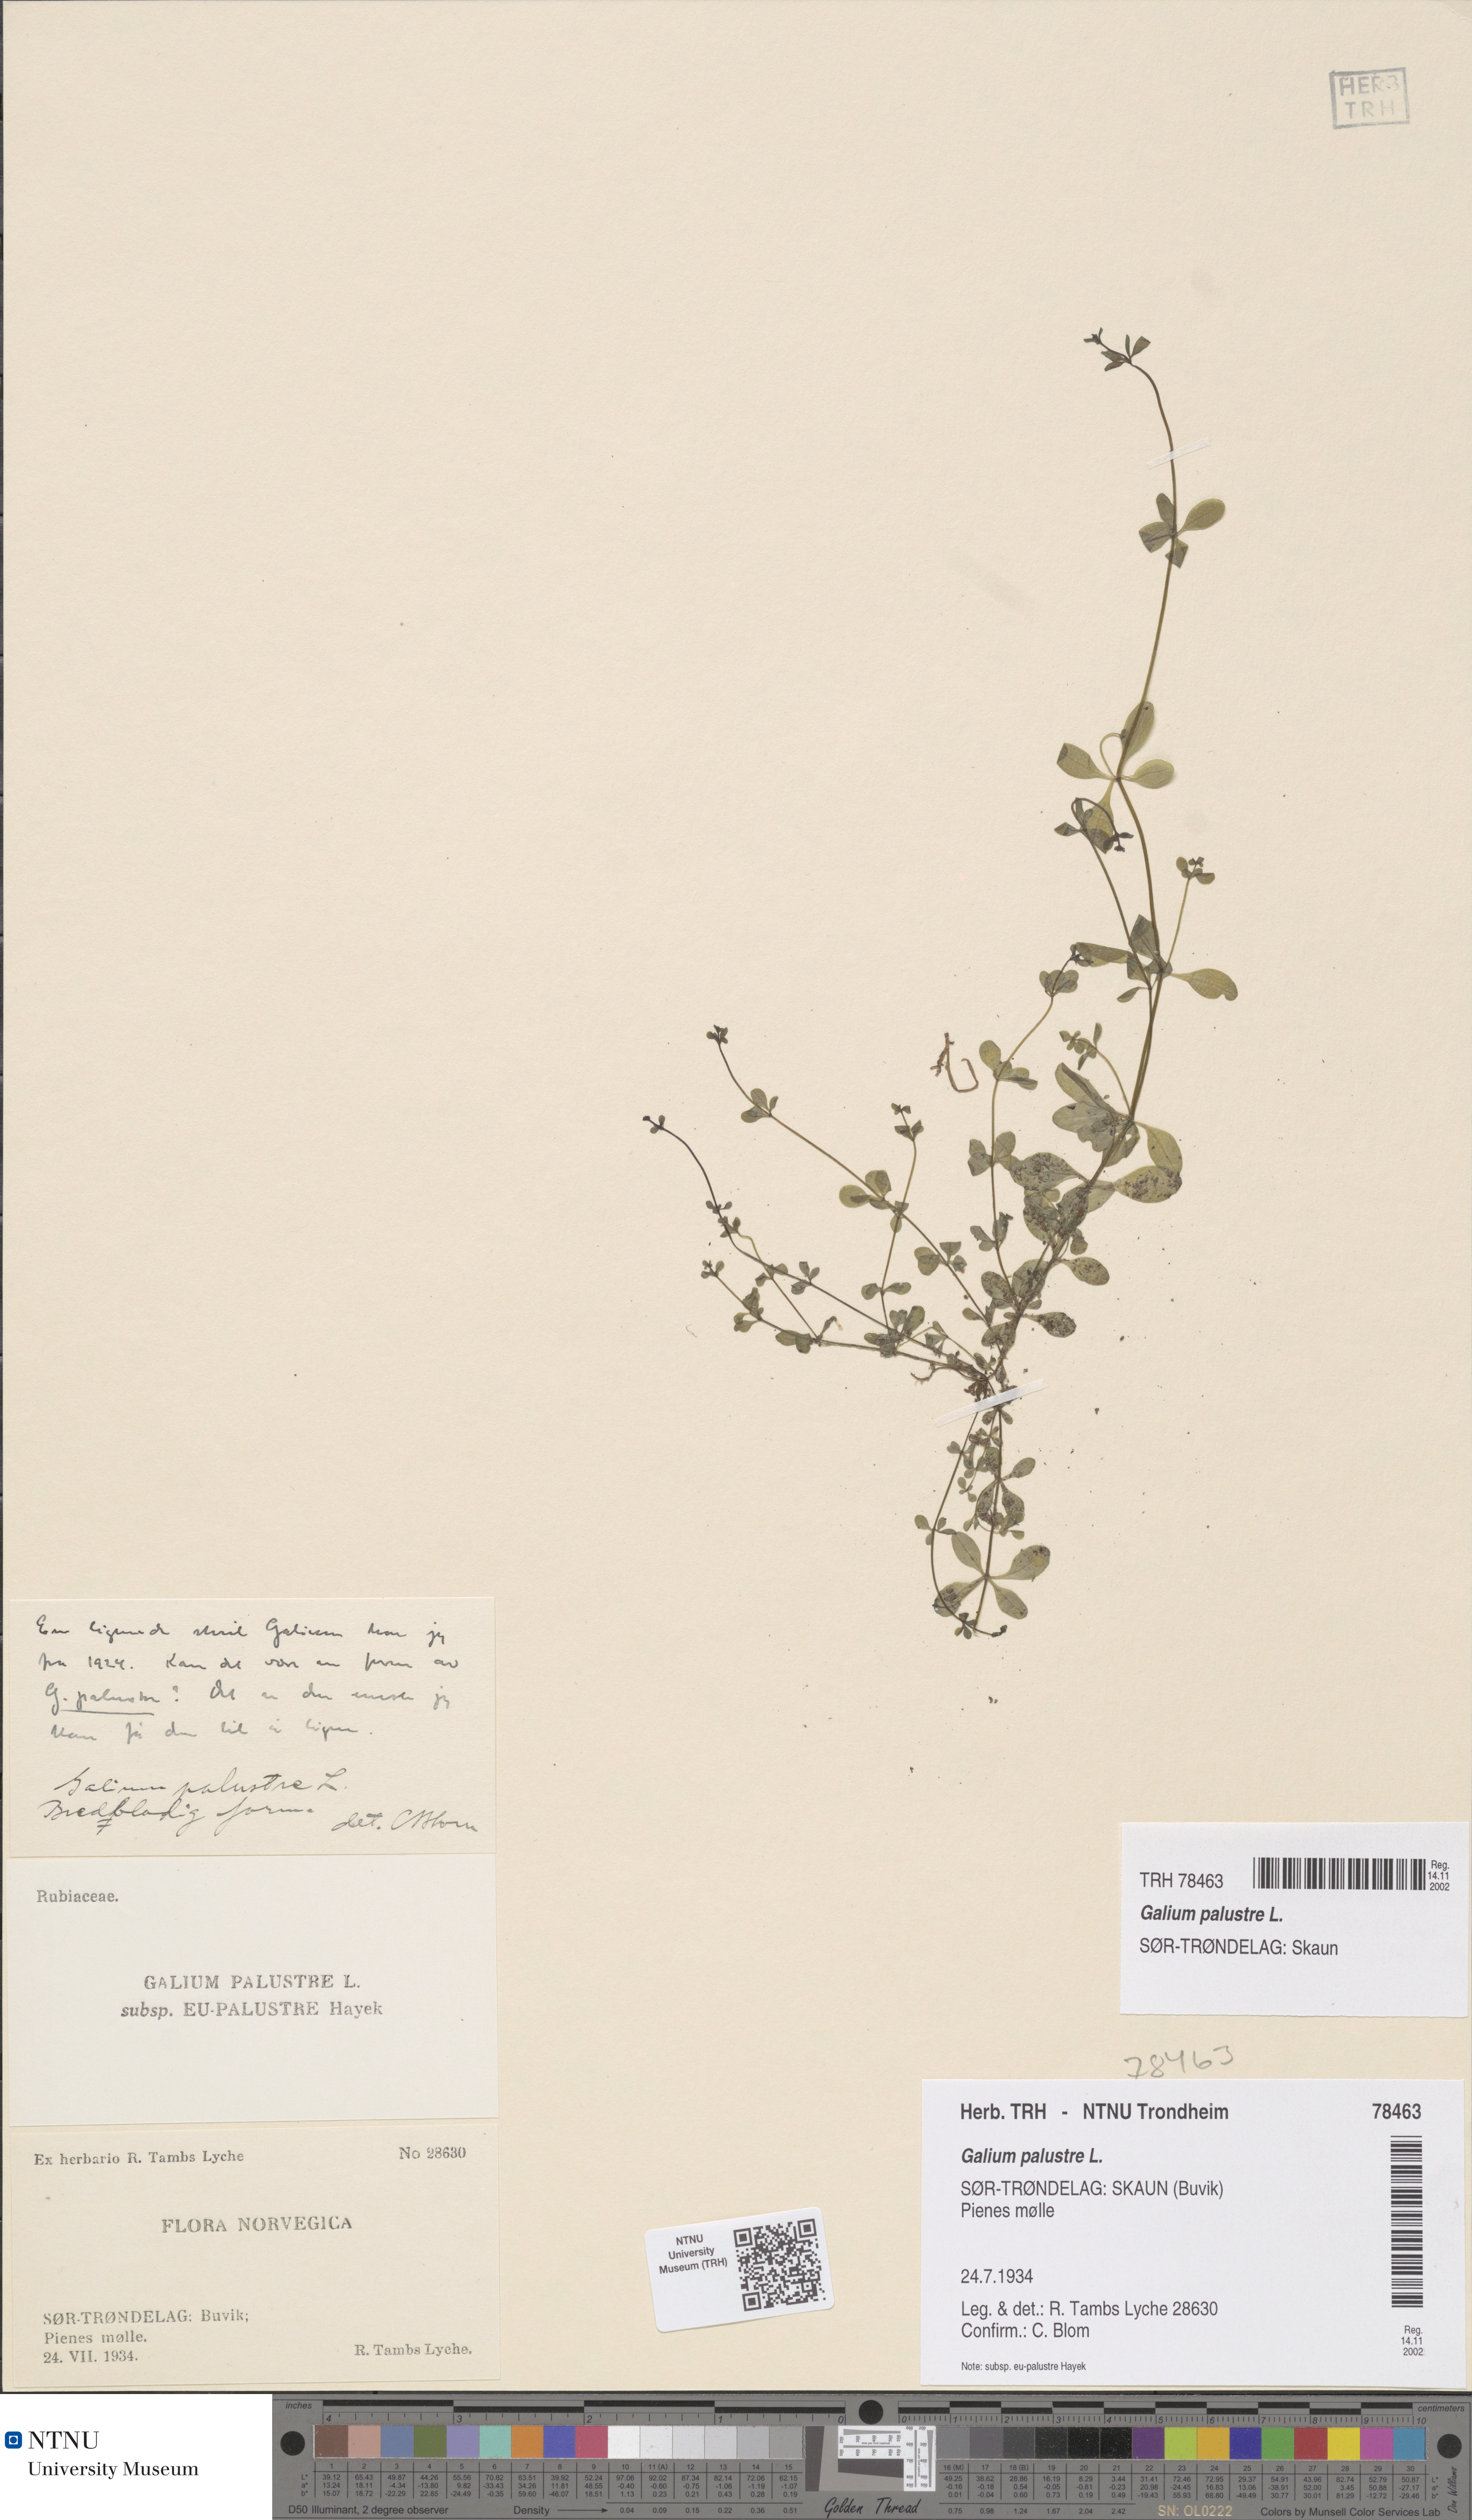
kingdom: Plantae
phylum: Tracheophyta
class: Magnoliopsida
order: Gentianales
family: Rubiaceae
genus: Galium
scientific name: Galium palustre
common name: Common marsh-bedstraw
